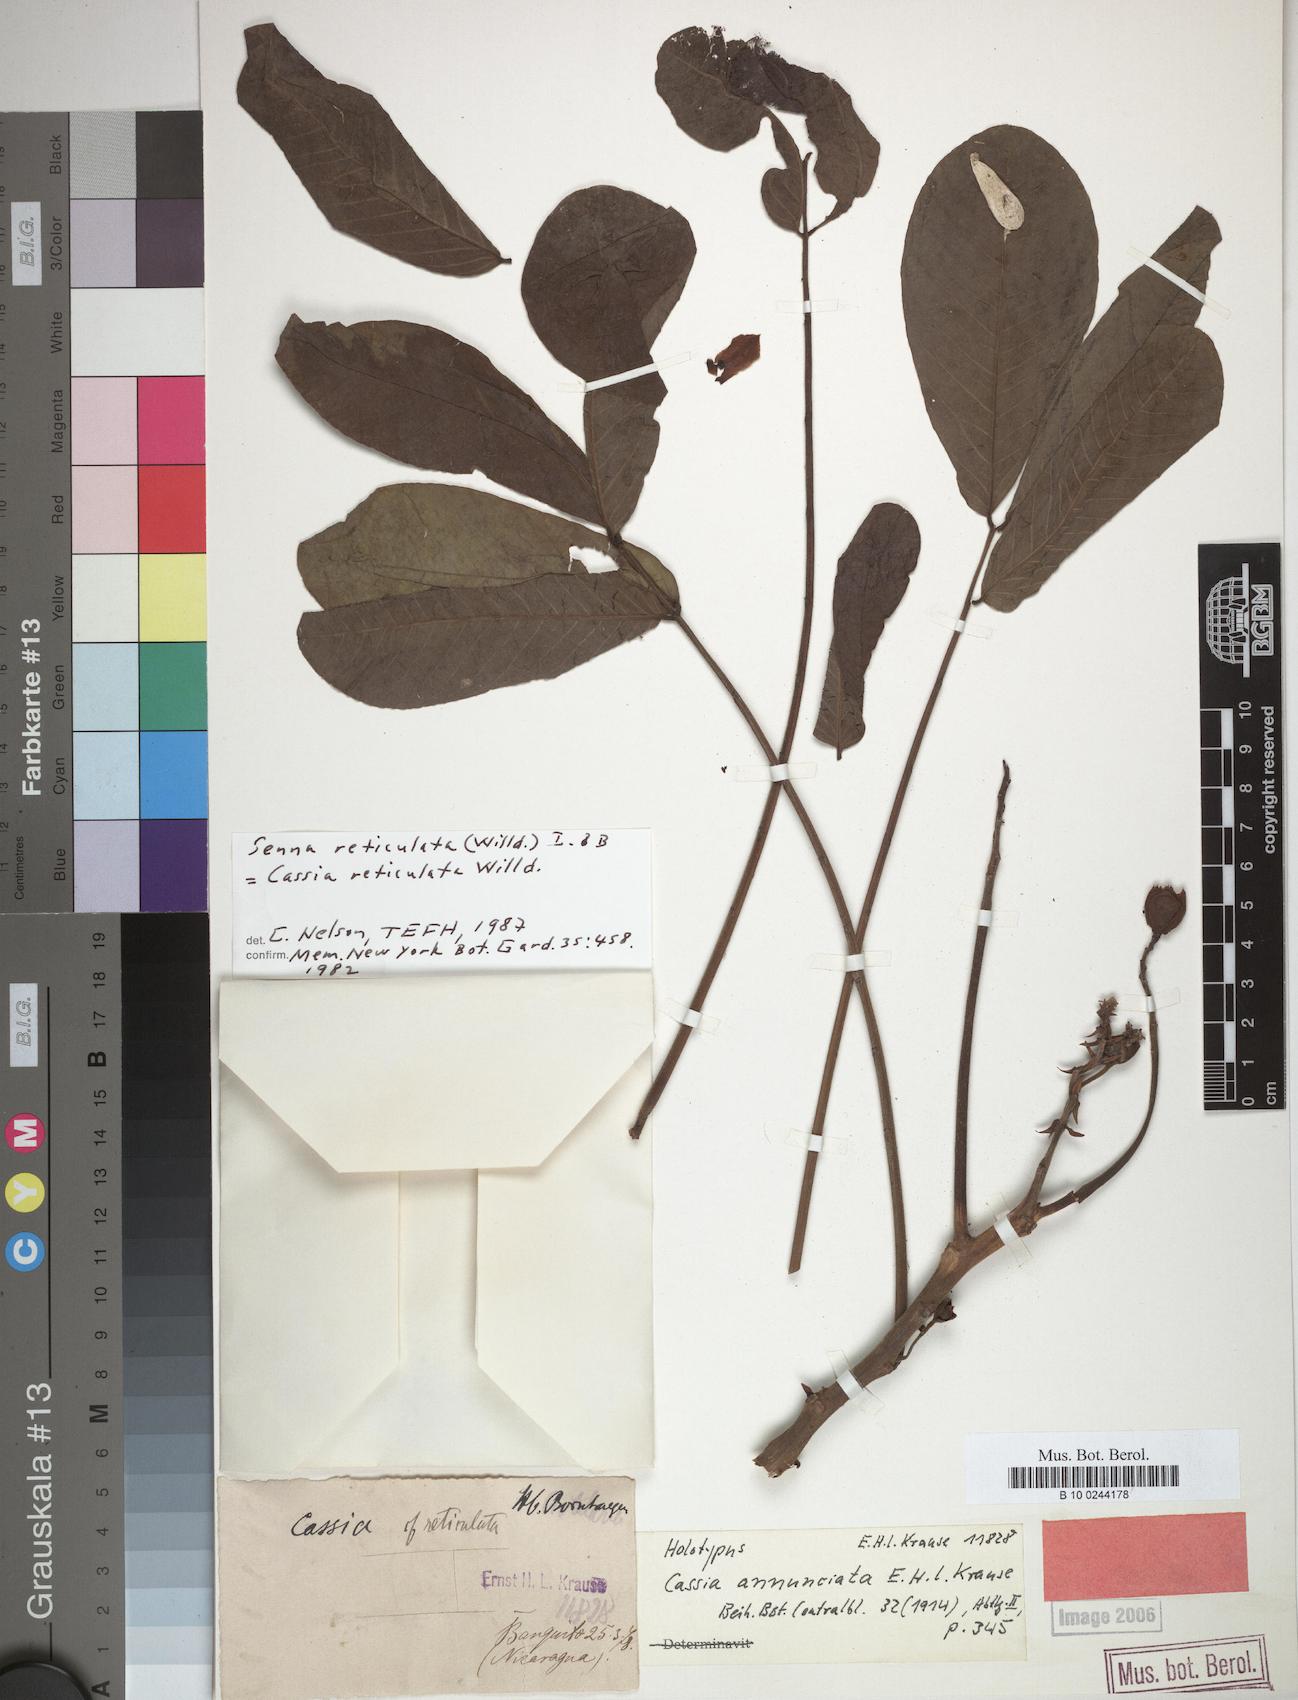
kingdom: Plantae
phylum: Tracheophyta
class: Magnoliopsida
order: Fabales
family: Fabaceae
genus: Senna
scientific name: Senna reticulata
